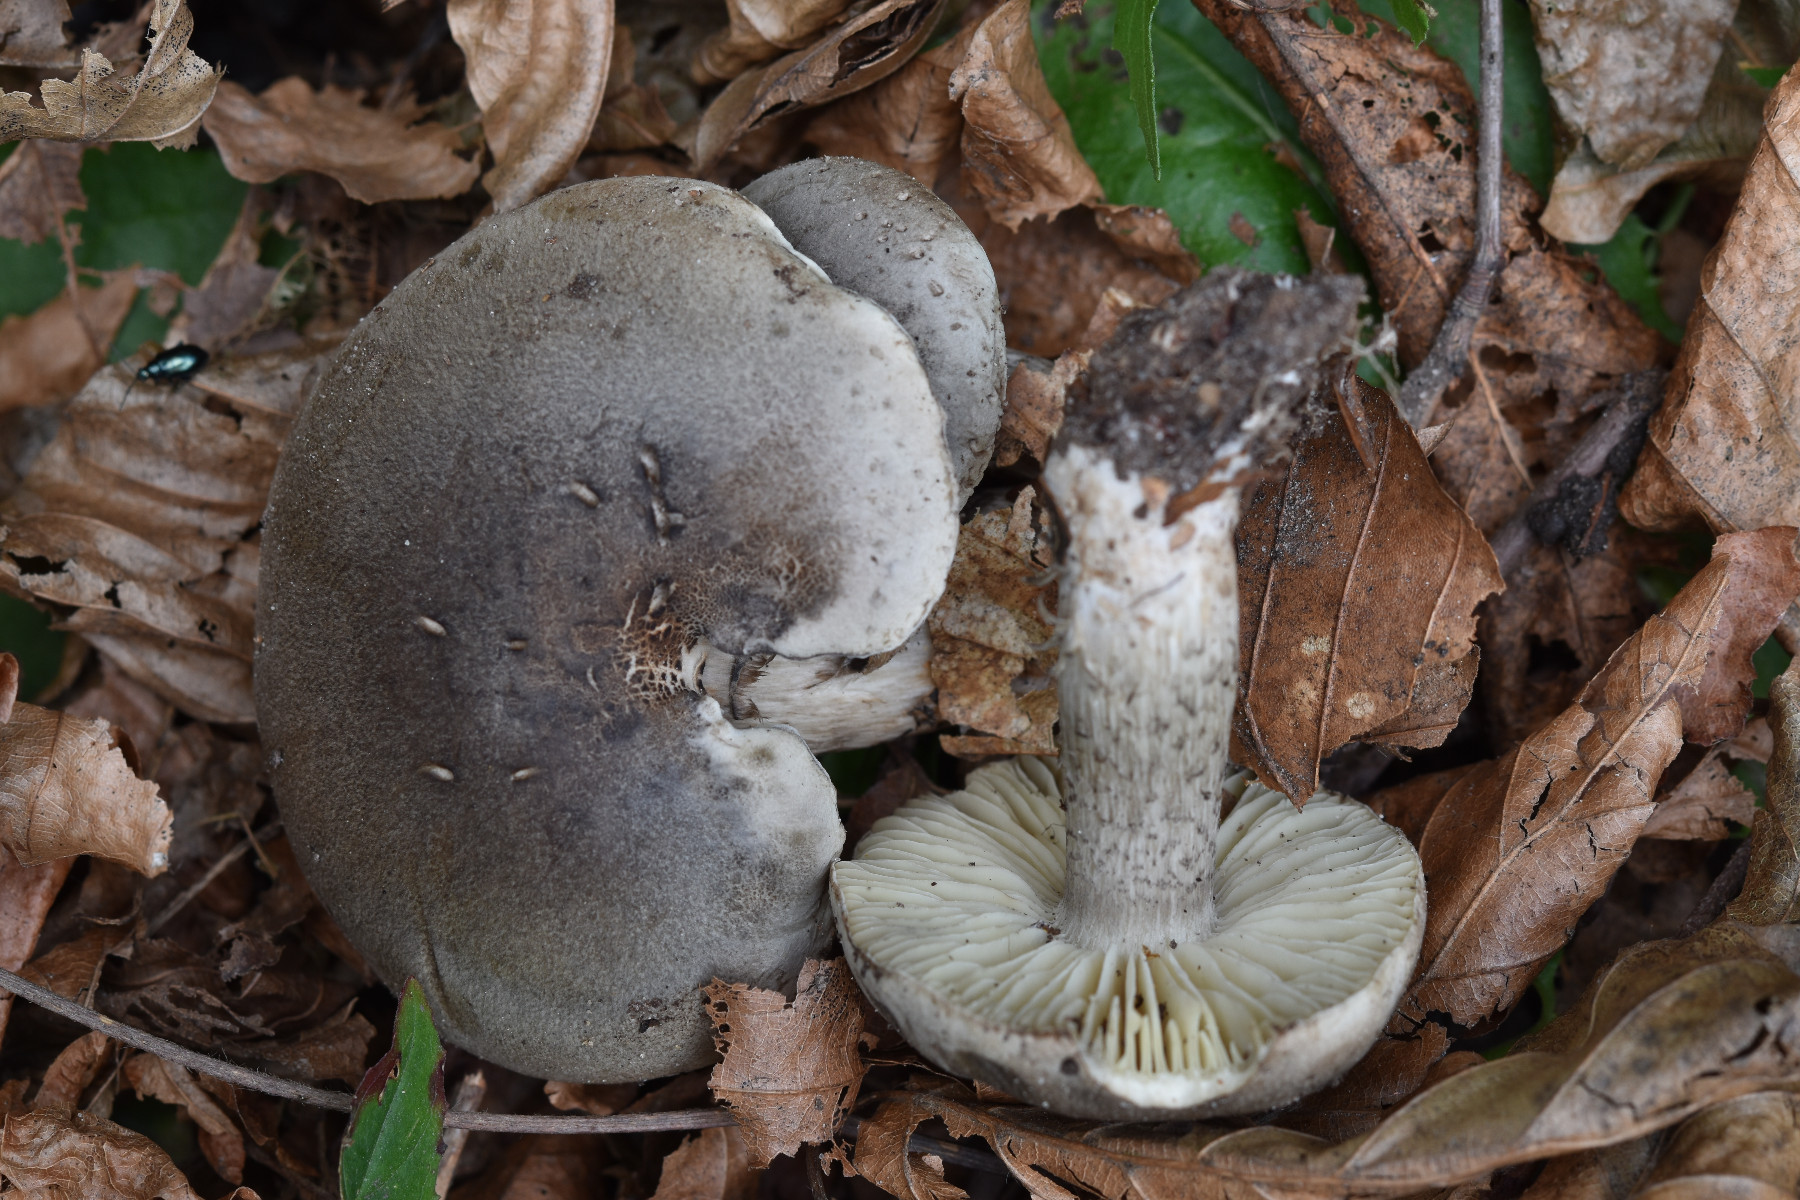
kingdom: Fungi
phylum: Basidiomycota
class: Agaricomycetes
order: Agaricales
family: Tricholomataceae
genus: Tricholoma
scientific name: Tricholoma saponaceum
